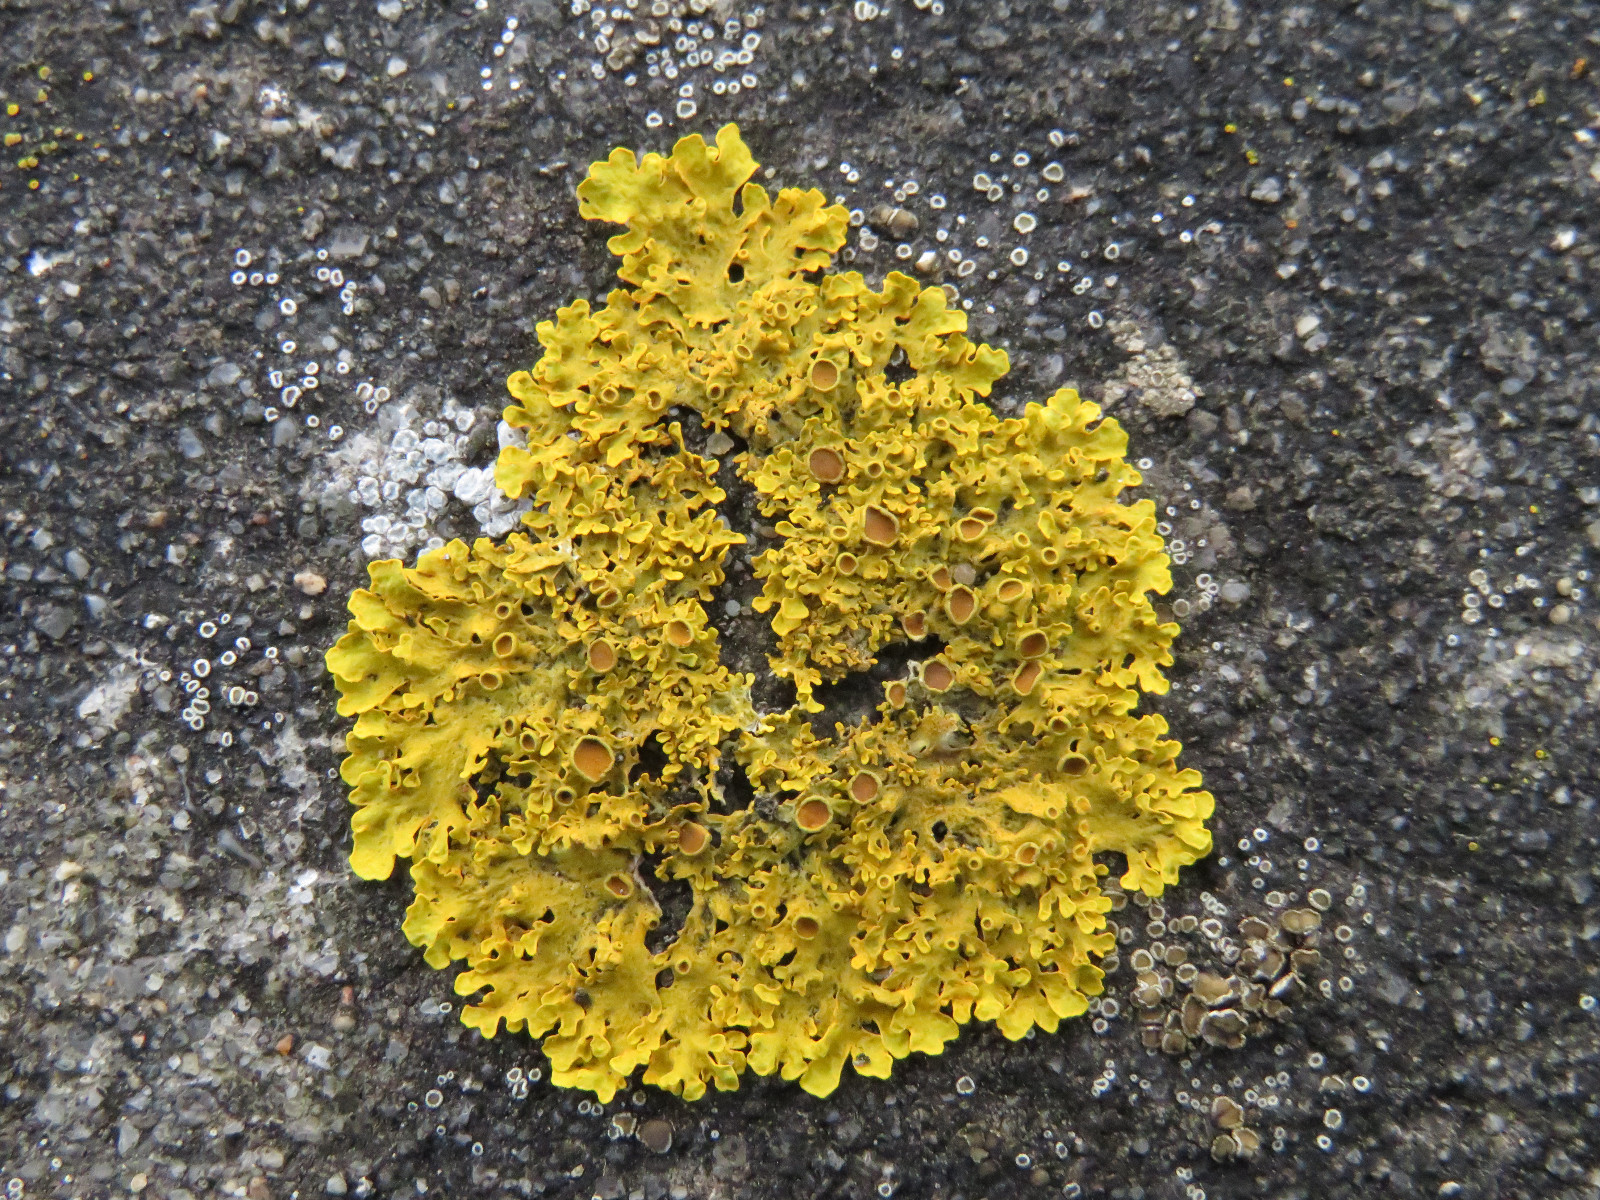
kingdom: Fungi
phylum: Ascomycota
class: Lecanoromycetes
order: Teloschistales
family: Teloschistaceae
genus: Xanthoria
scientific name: Xanthoria parietina
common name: almindelig væggelav
